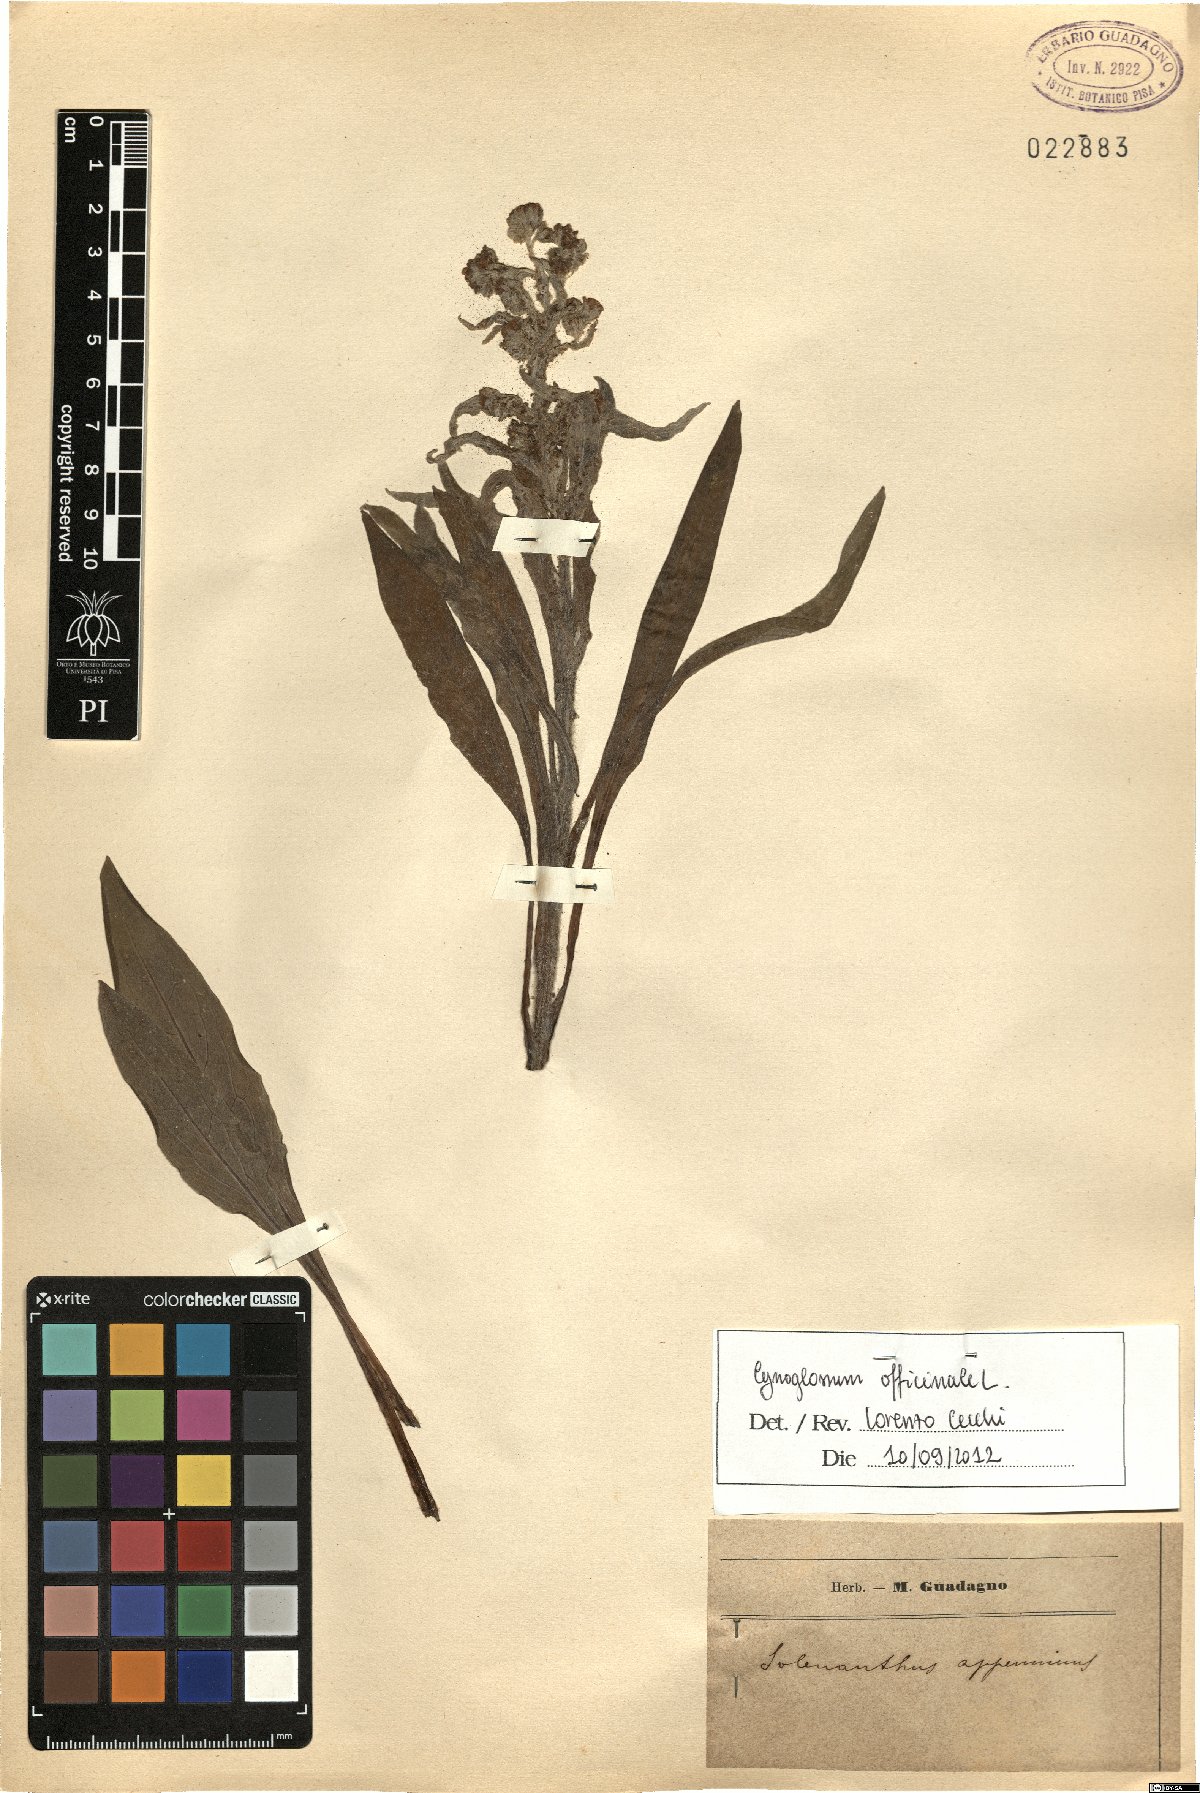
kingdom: Plantae
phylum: Tracheophyta
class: Magnoliopsida
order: Boraginales
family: Boraginaceae
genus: Cynoglossum
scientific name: Cynoglossum officinale
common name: Hound's-tongue
